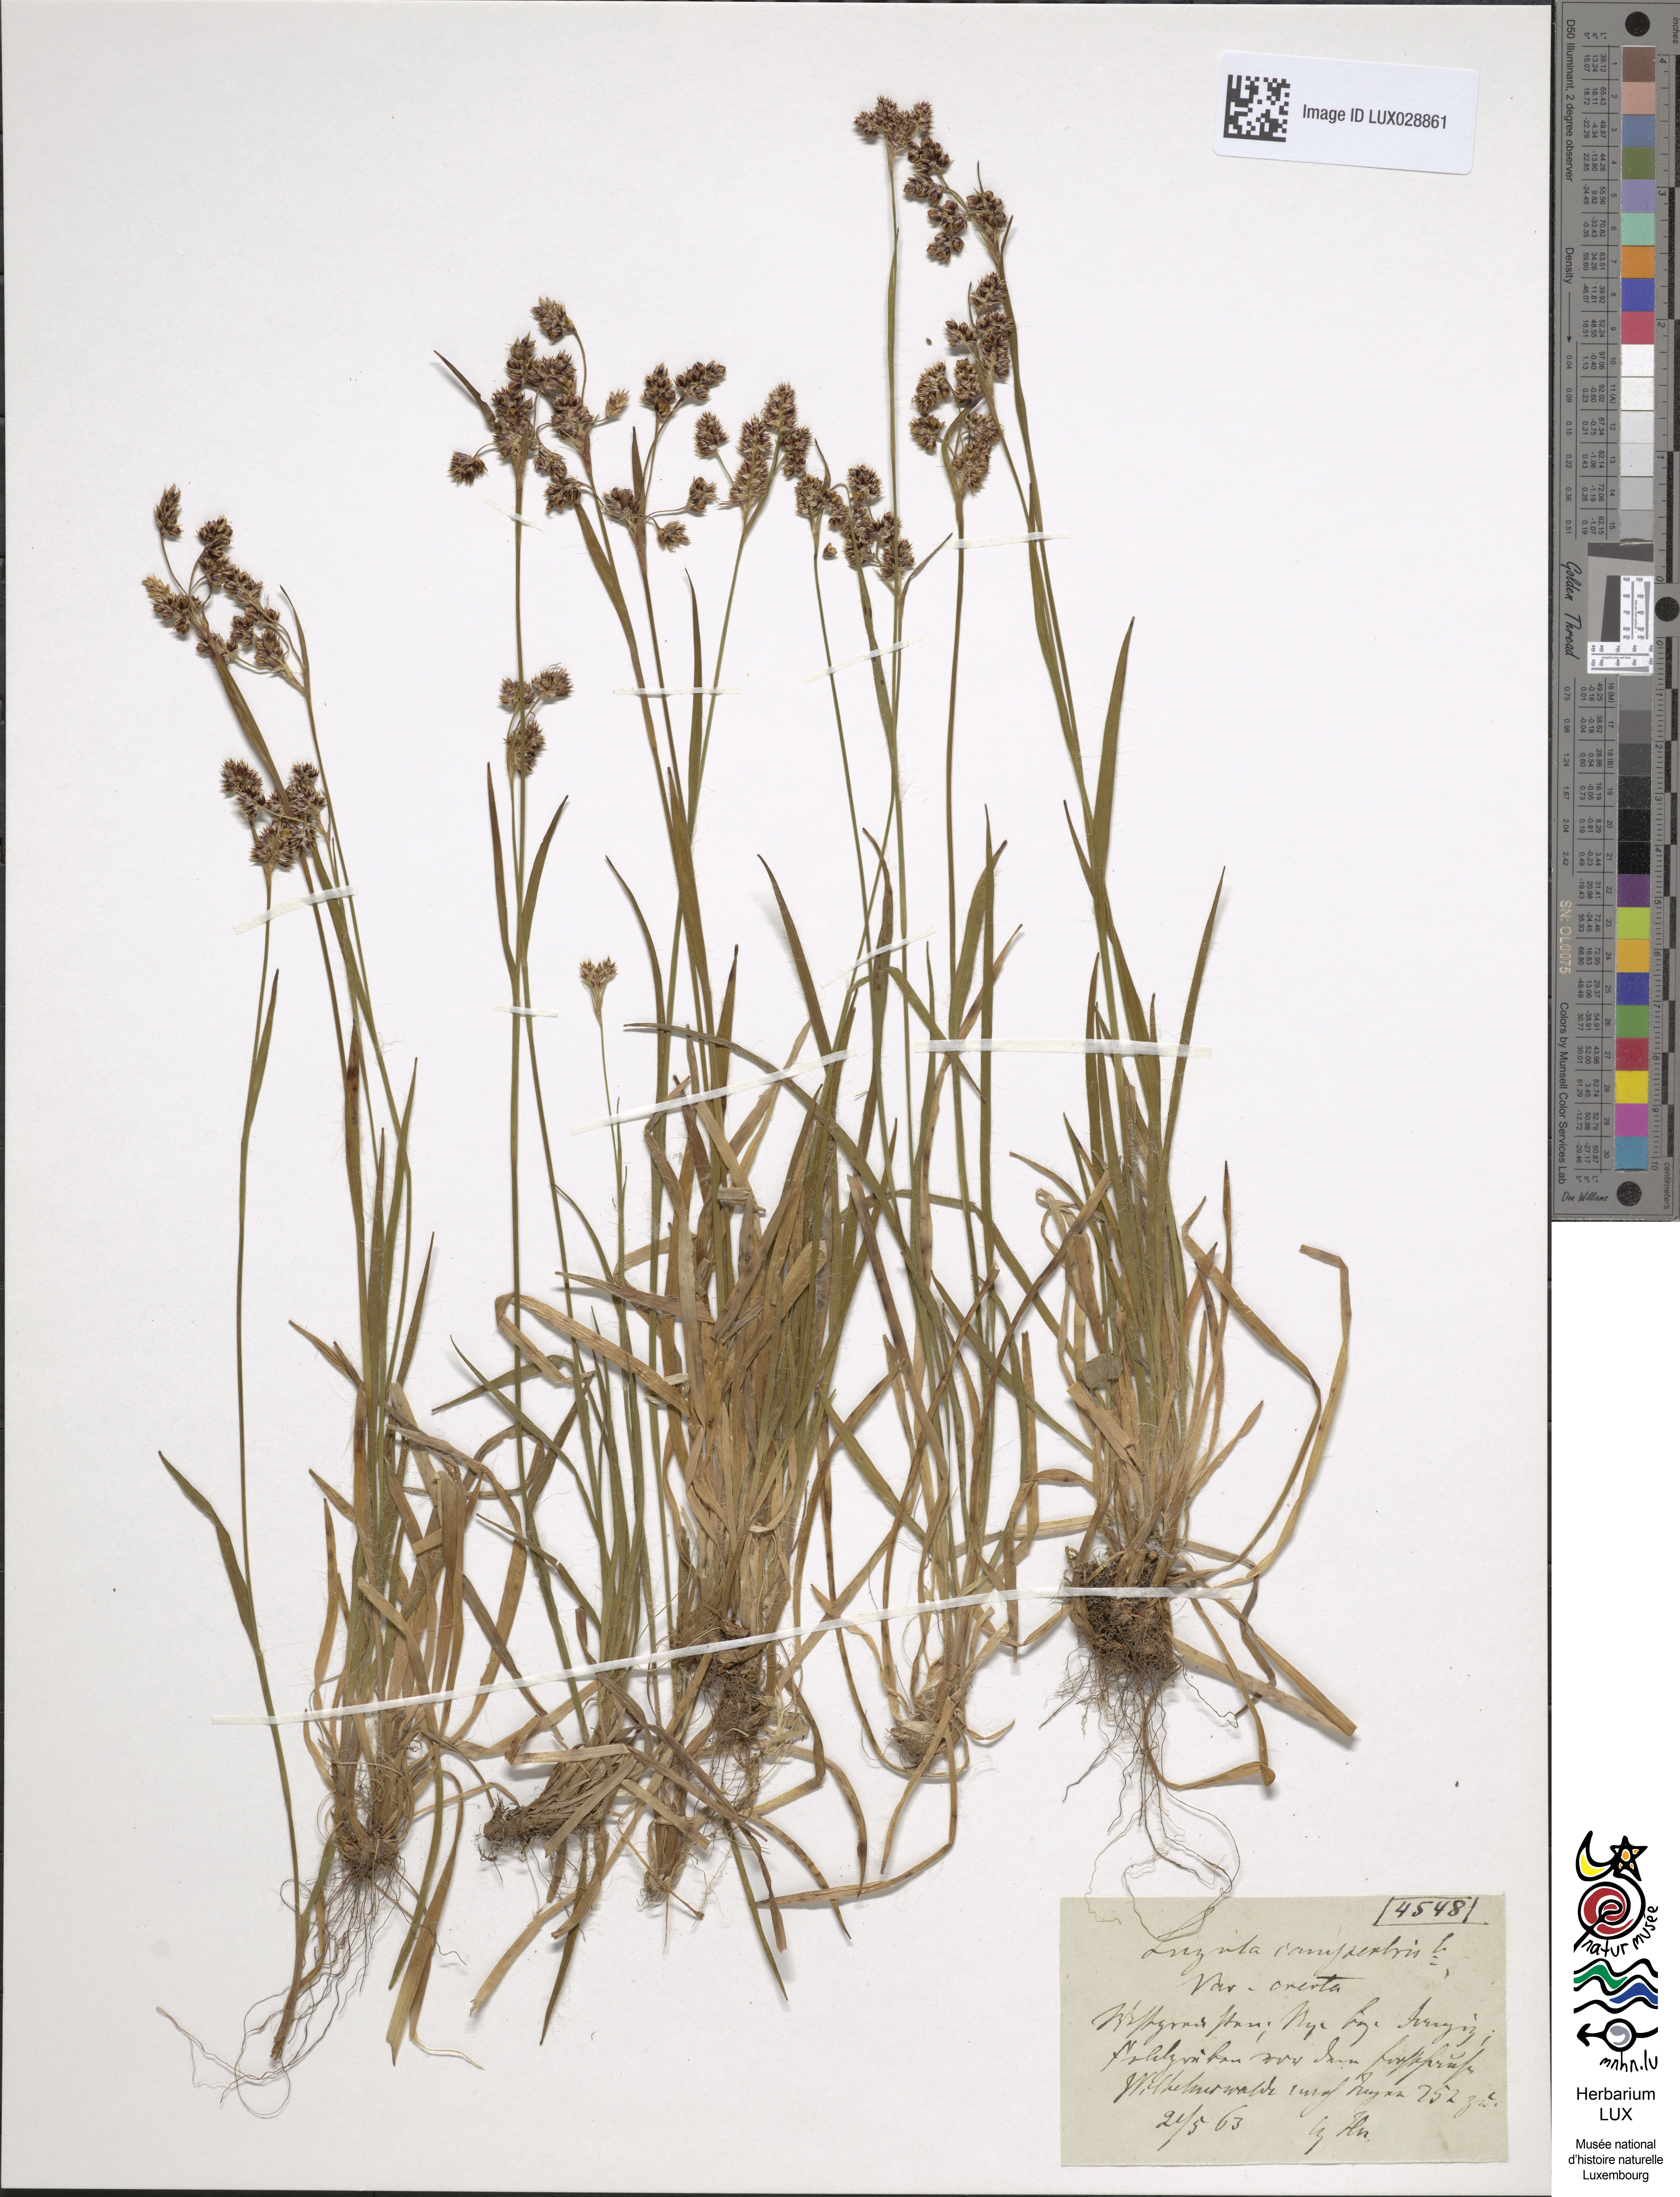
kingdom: Plantae
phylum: Tracheophyta
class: Liliopsida
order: Poales
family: Juncaceae
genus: Luzula
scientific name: Luzula multiflora
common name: Heath wood-rush
